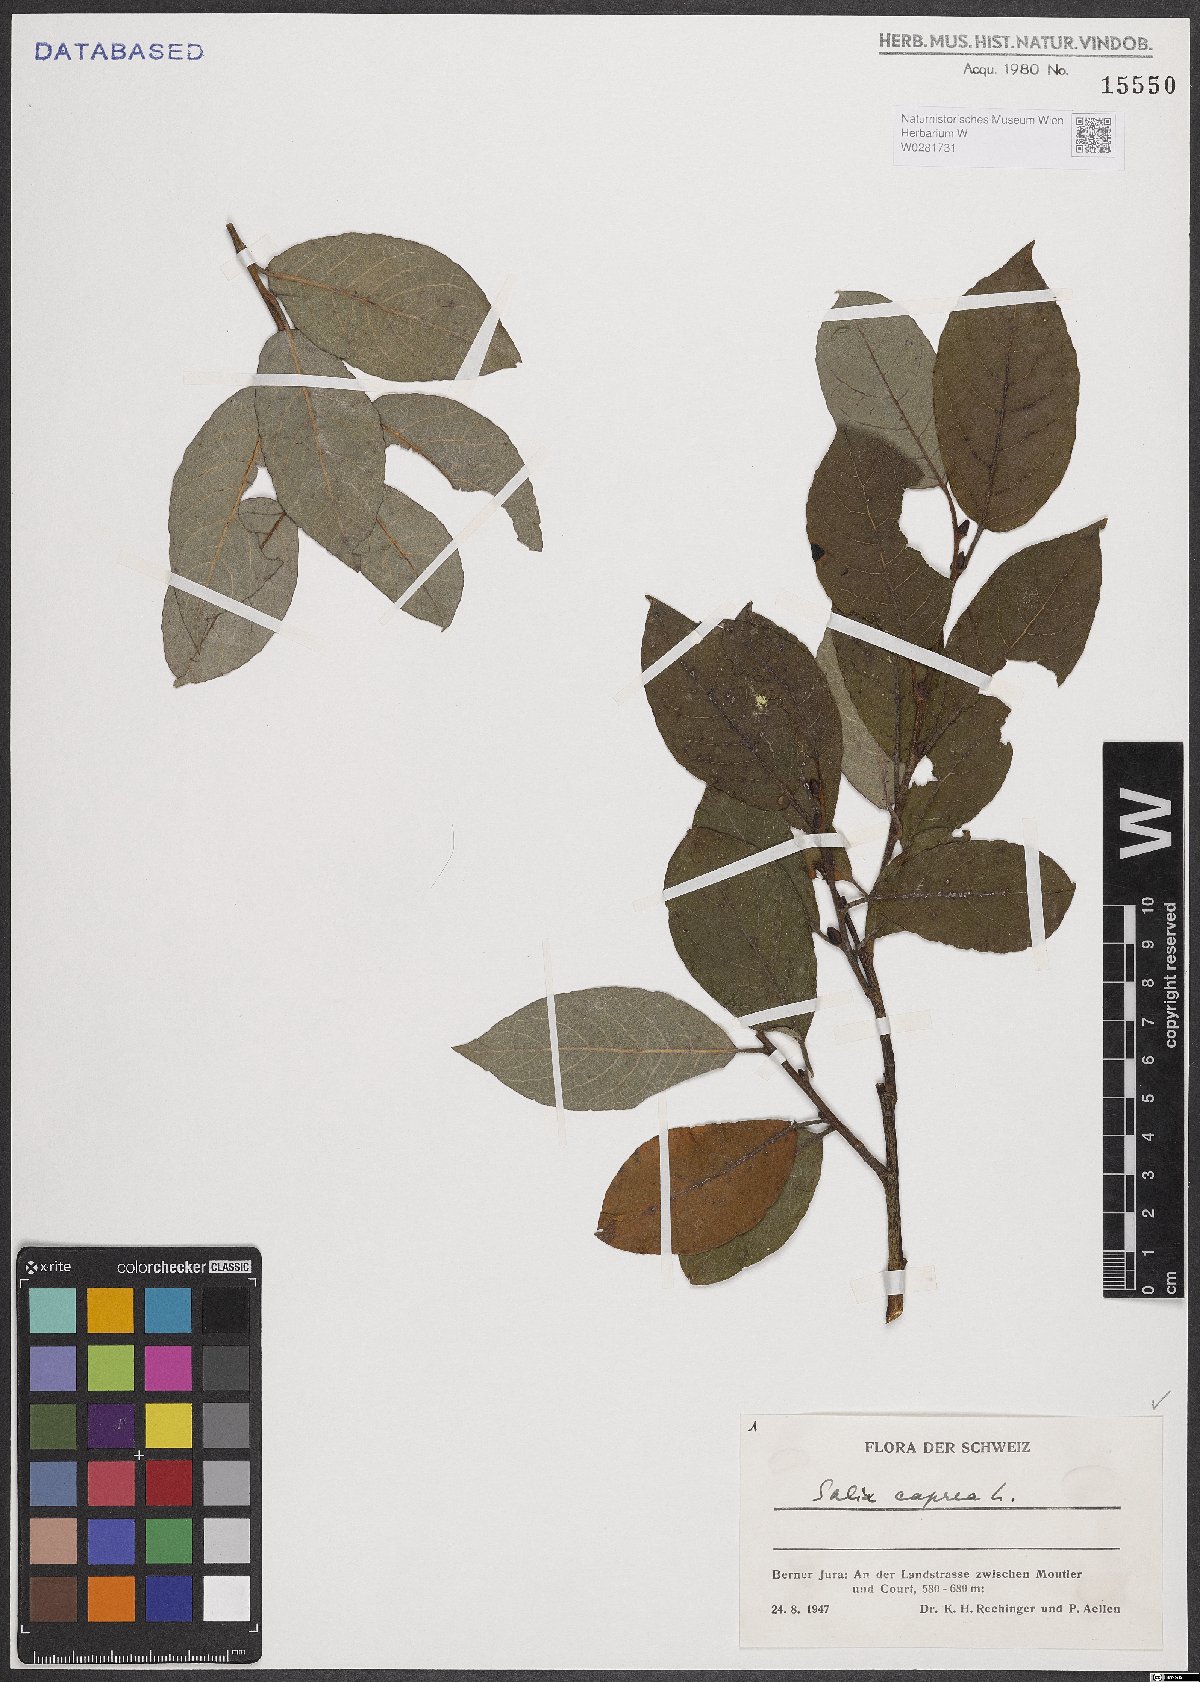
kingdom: Plantae
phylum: Tracheophyta
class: Magnoliopsida
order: Malpighiales
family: Salicaceae
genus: Salix
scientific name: Salix caprea
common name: Goat willow
